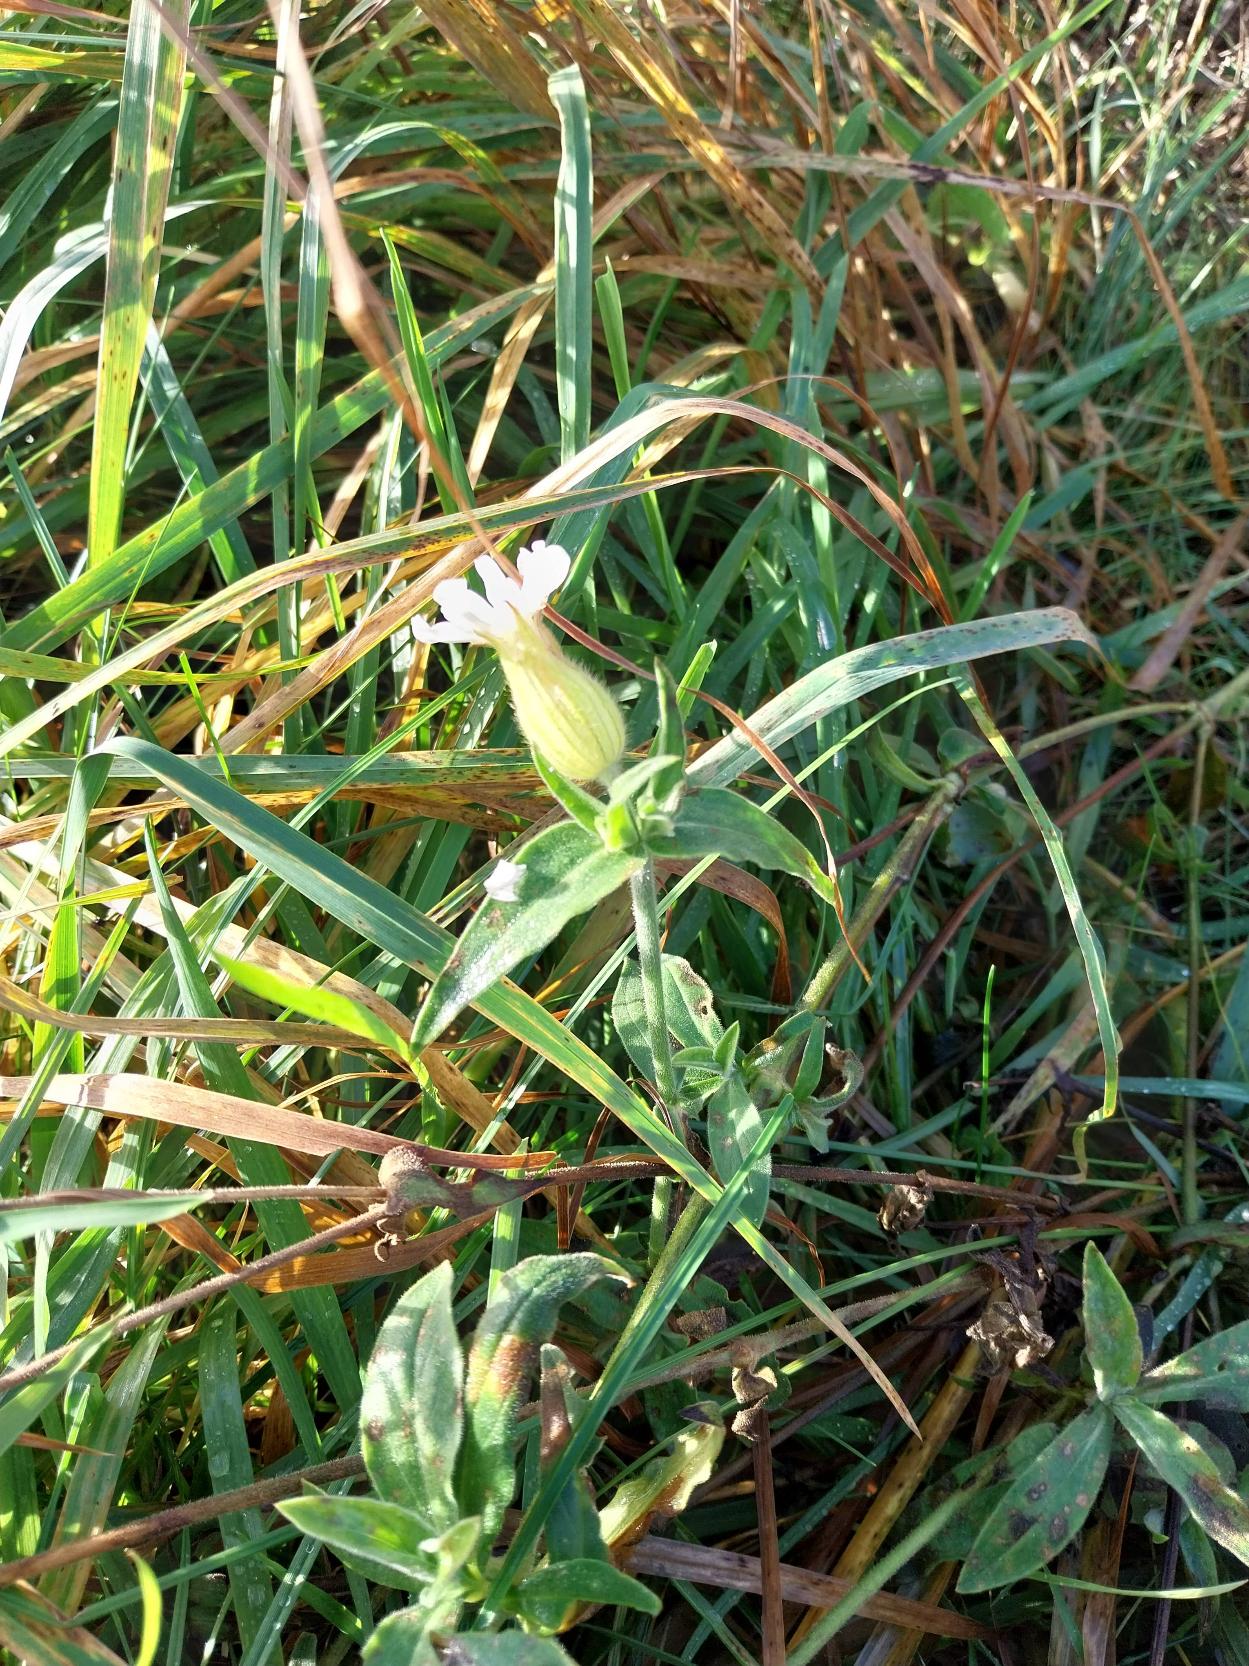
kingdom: Plantae
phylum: Tracheophyta
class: Magnoliopsida
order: Caryophyllales
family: Caryophyllaceae
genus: Silene
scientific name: Silene latifolia
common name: Aftenpragtstjerne
